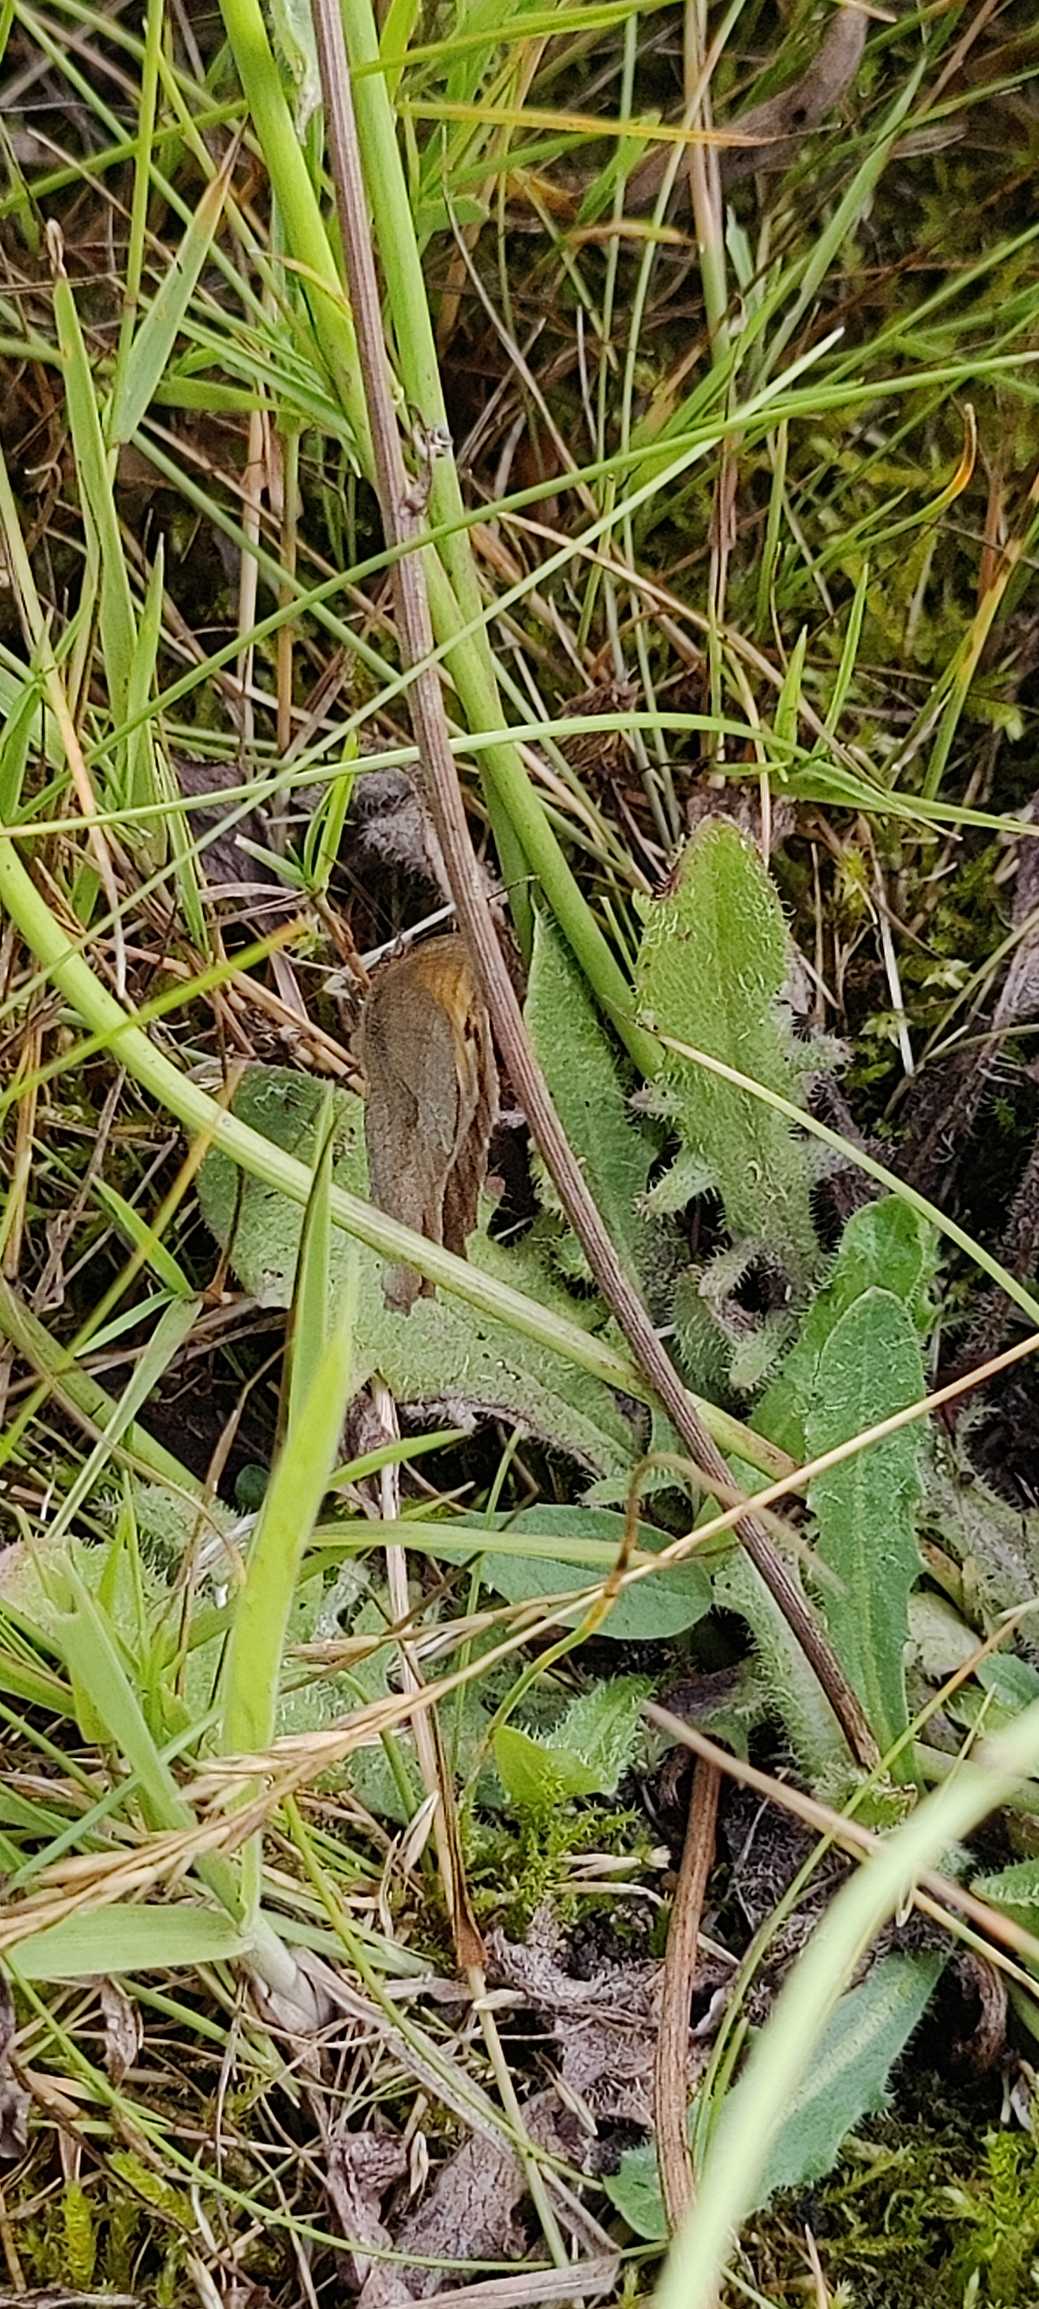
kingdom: Animalia
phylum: Arthropoda
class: Insecta
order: Lepidoptera
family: Nymphalidae
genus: Maniola
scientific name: Maniola jurtina
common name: Græsrandøje
